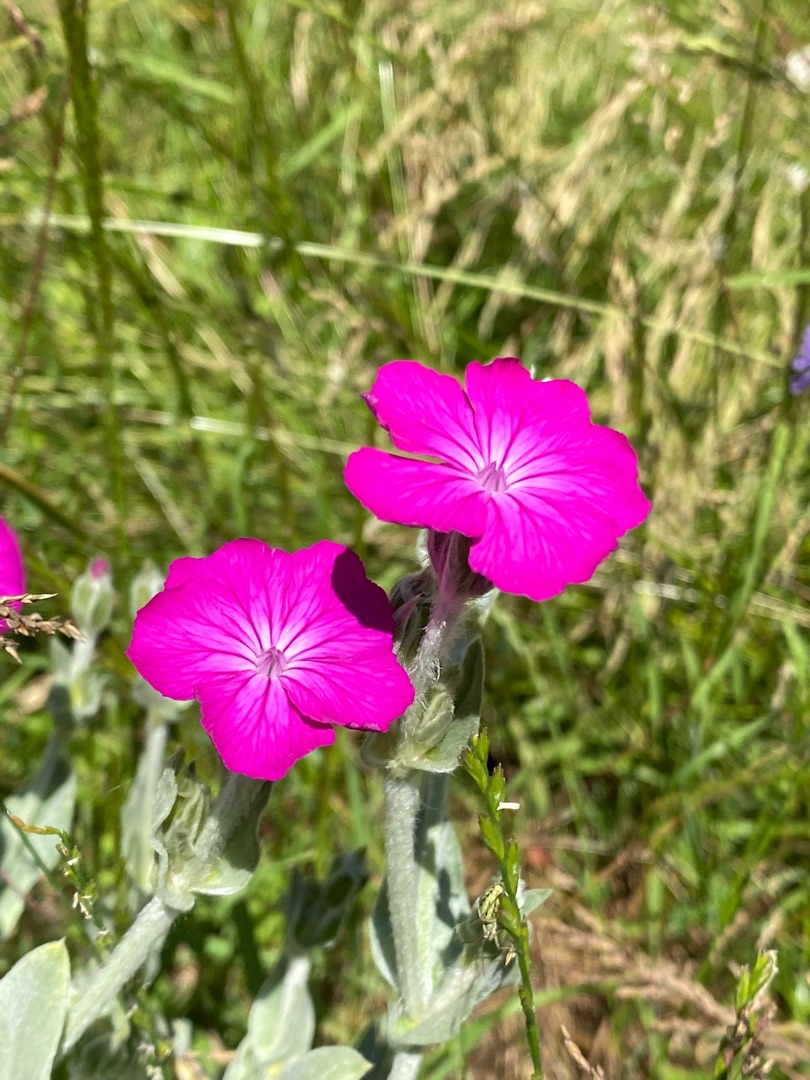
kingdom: Plantae
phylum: Tracheophyta
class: Magnoliopsida
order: Caryophyllales
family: Caryophyllaceae
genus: Silene
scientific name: Silene coronaria
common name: Fiksernellike
